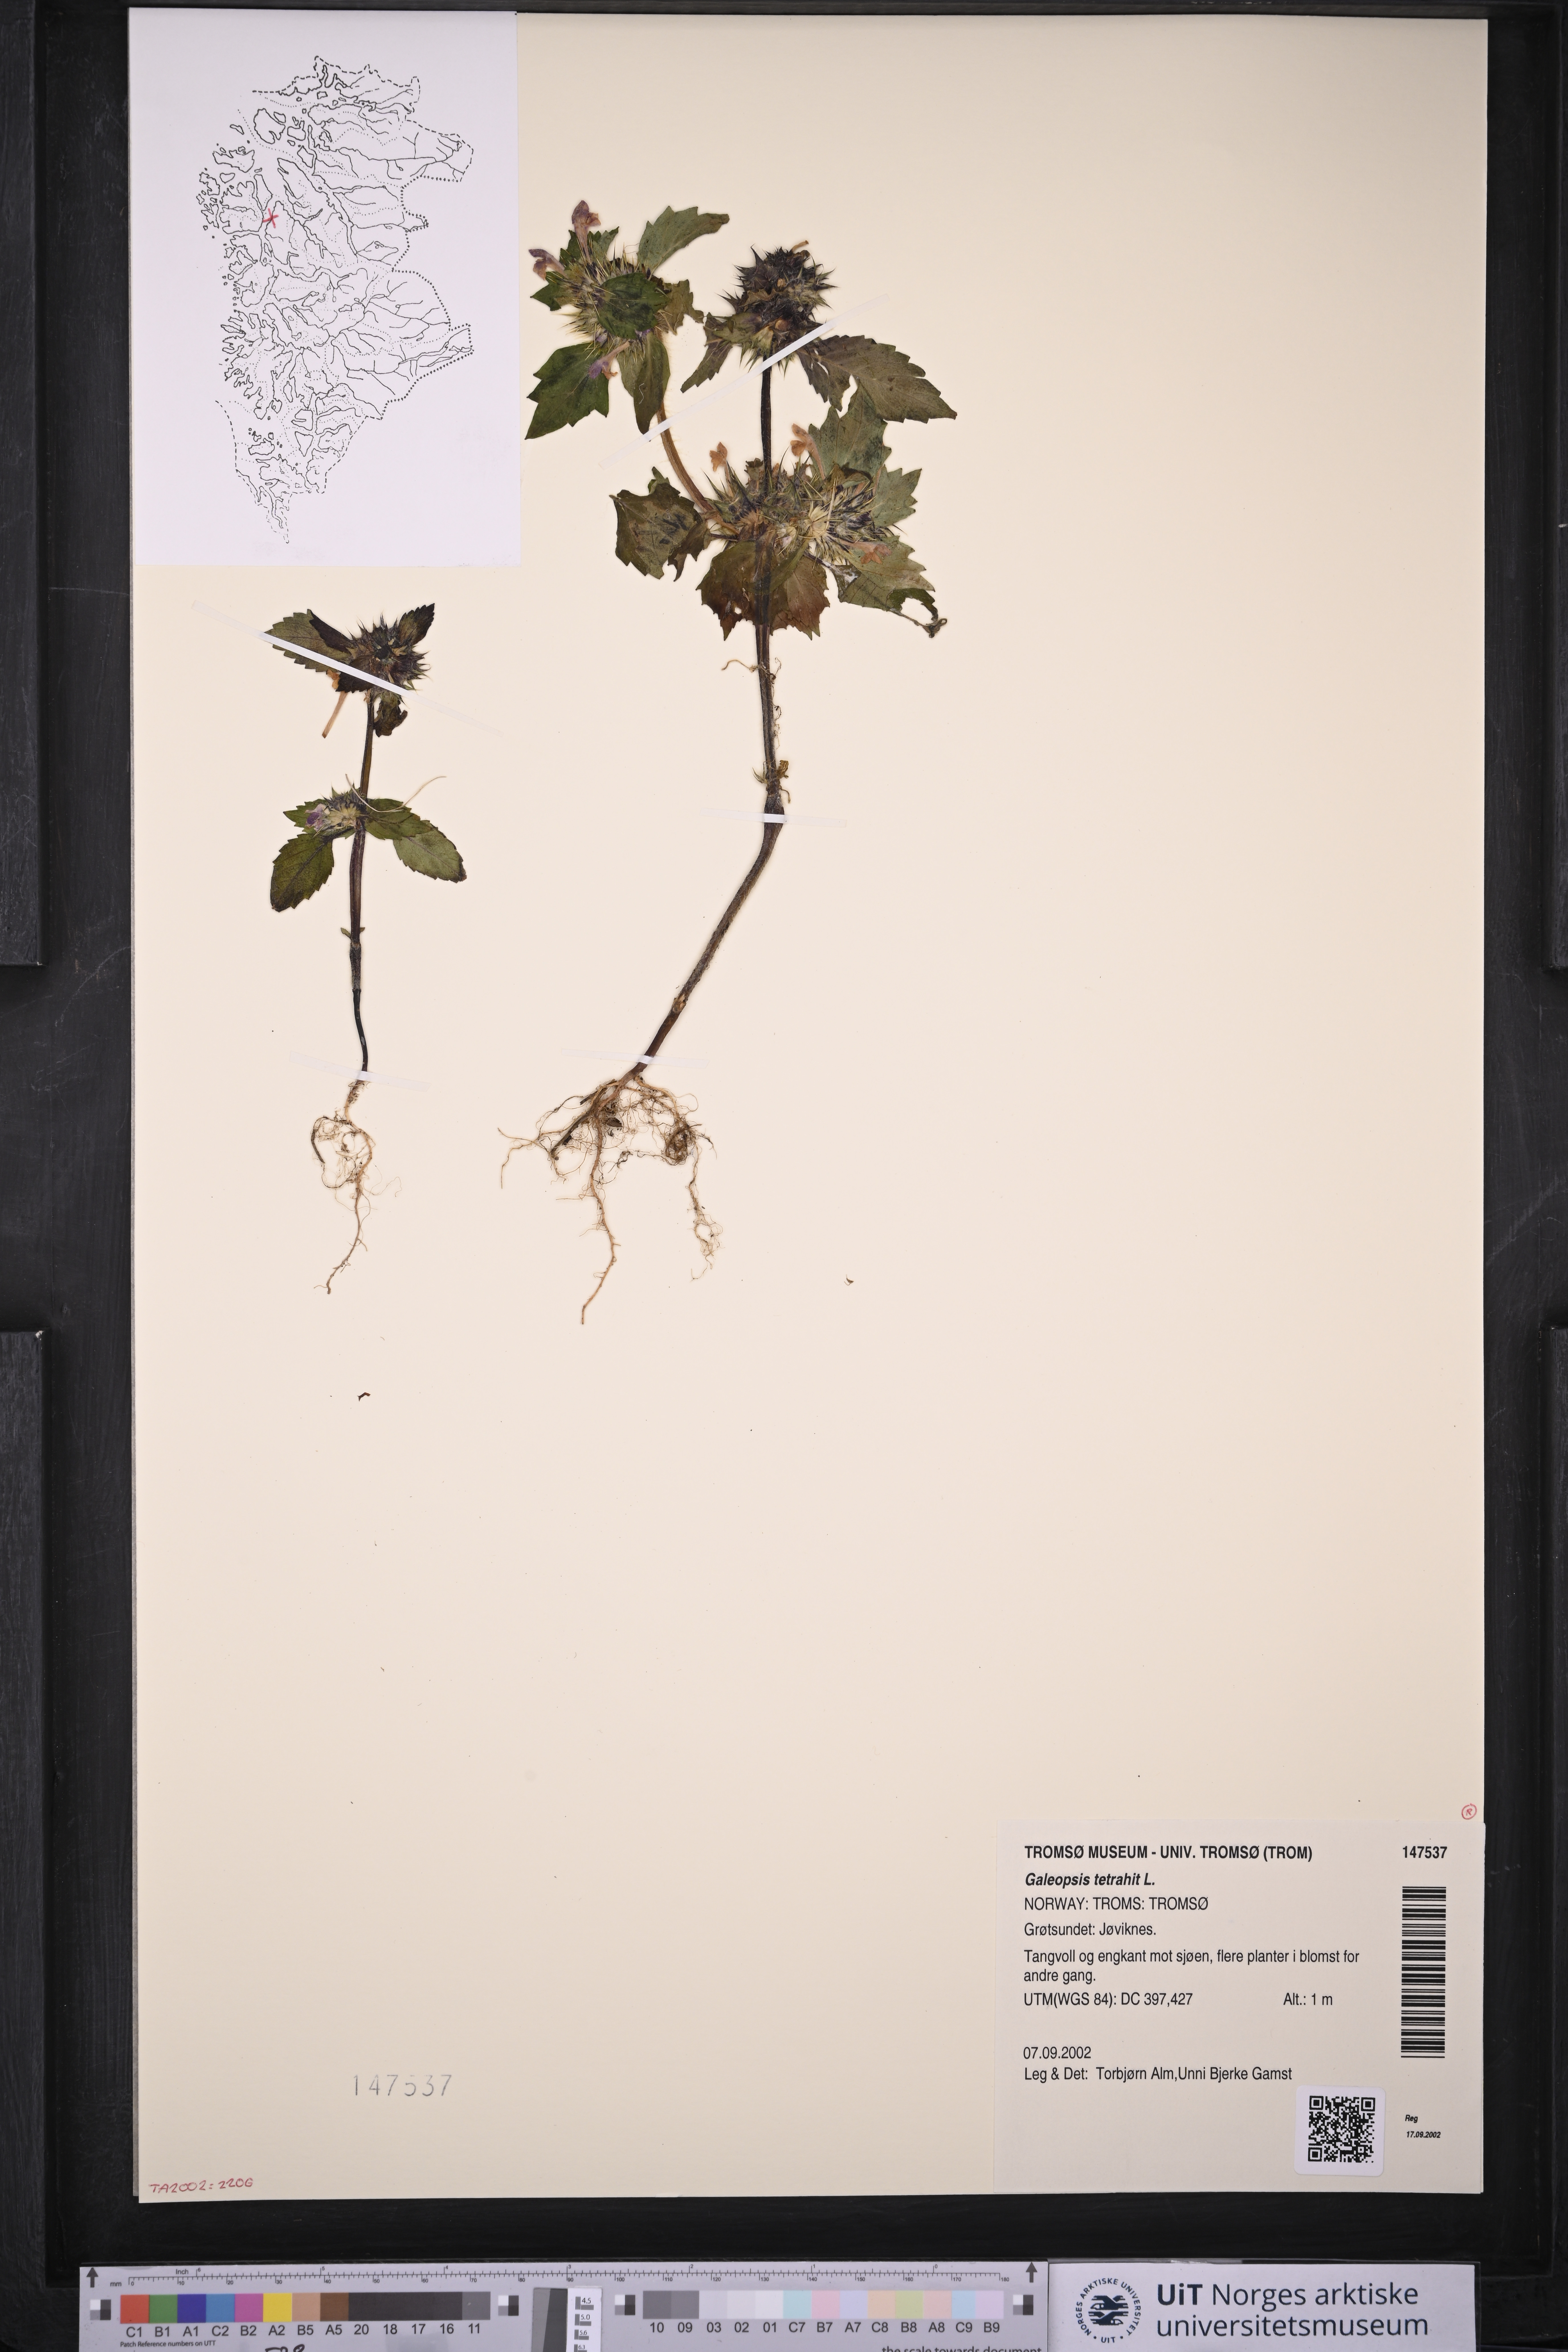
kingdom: Plantae
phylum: Tracheophyta
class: Magnoliopsida
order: Lamiales
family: Lamiaceae
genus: Galeopsis
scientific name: Galeopsis tetrahit
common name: Common hemp-nettle
